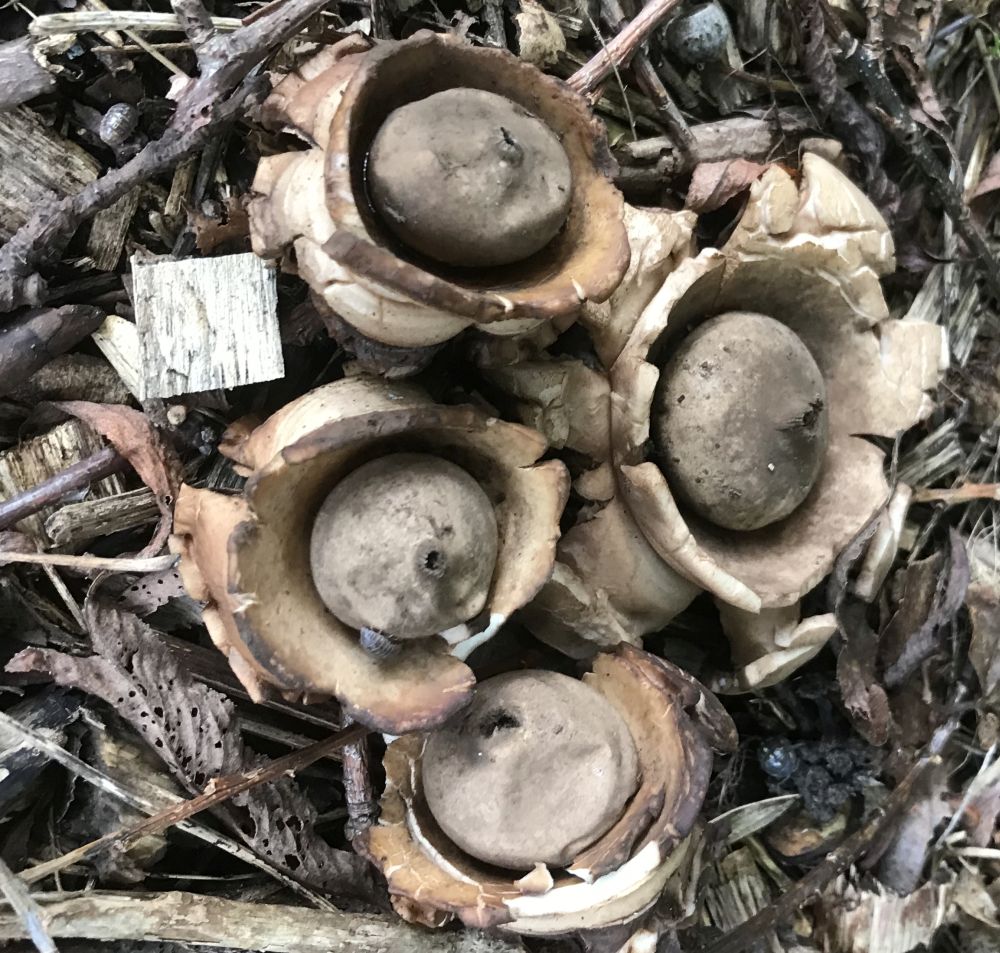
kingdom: Fungi
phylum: Basidiomycota
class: Agaricomycetes
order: Geastrales
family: Geastraceae
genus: Geastrum
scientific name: Geastrum michelianum
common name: kødet stjernebold
